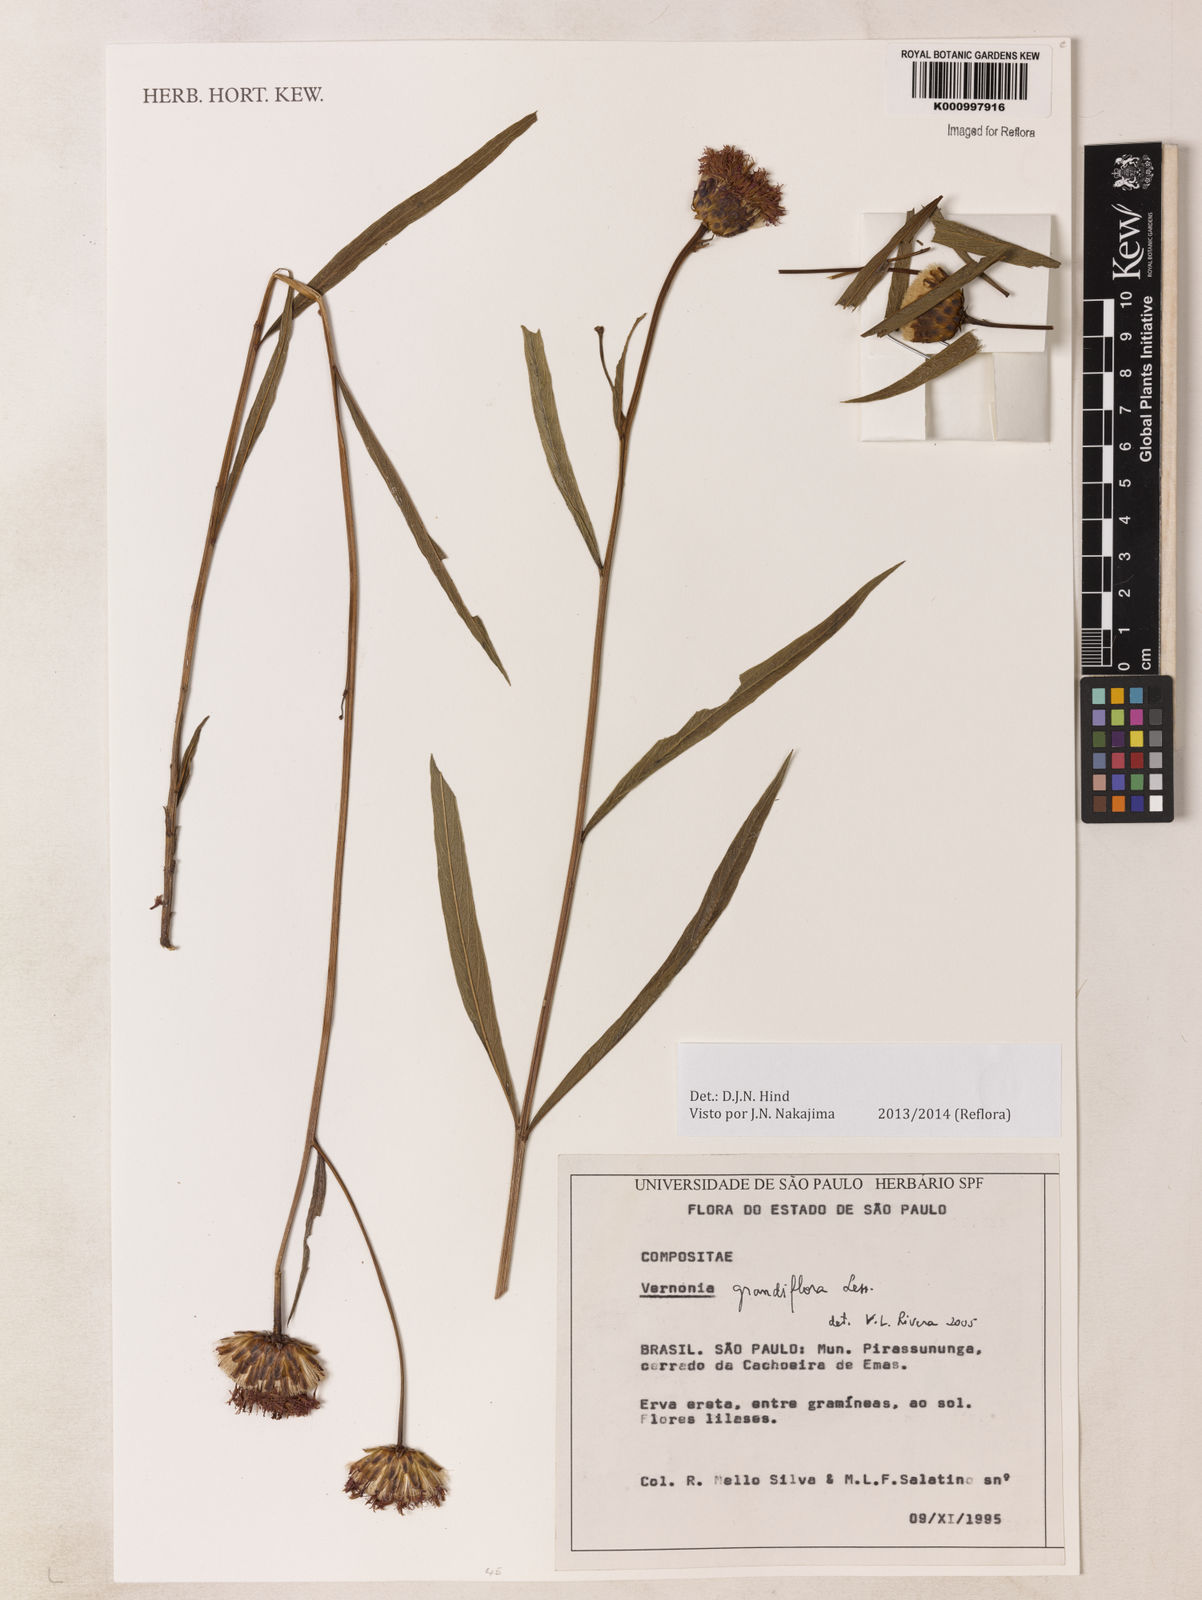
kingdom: Plantae
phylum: Tracheophyta
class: Magnoliopsida
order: Asterales
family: Asteraceae
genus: Lessingianthus
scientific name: Lessingianthus grandiflorus
